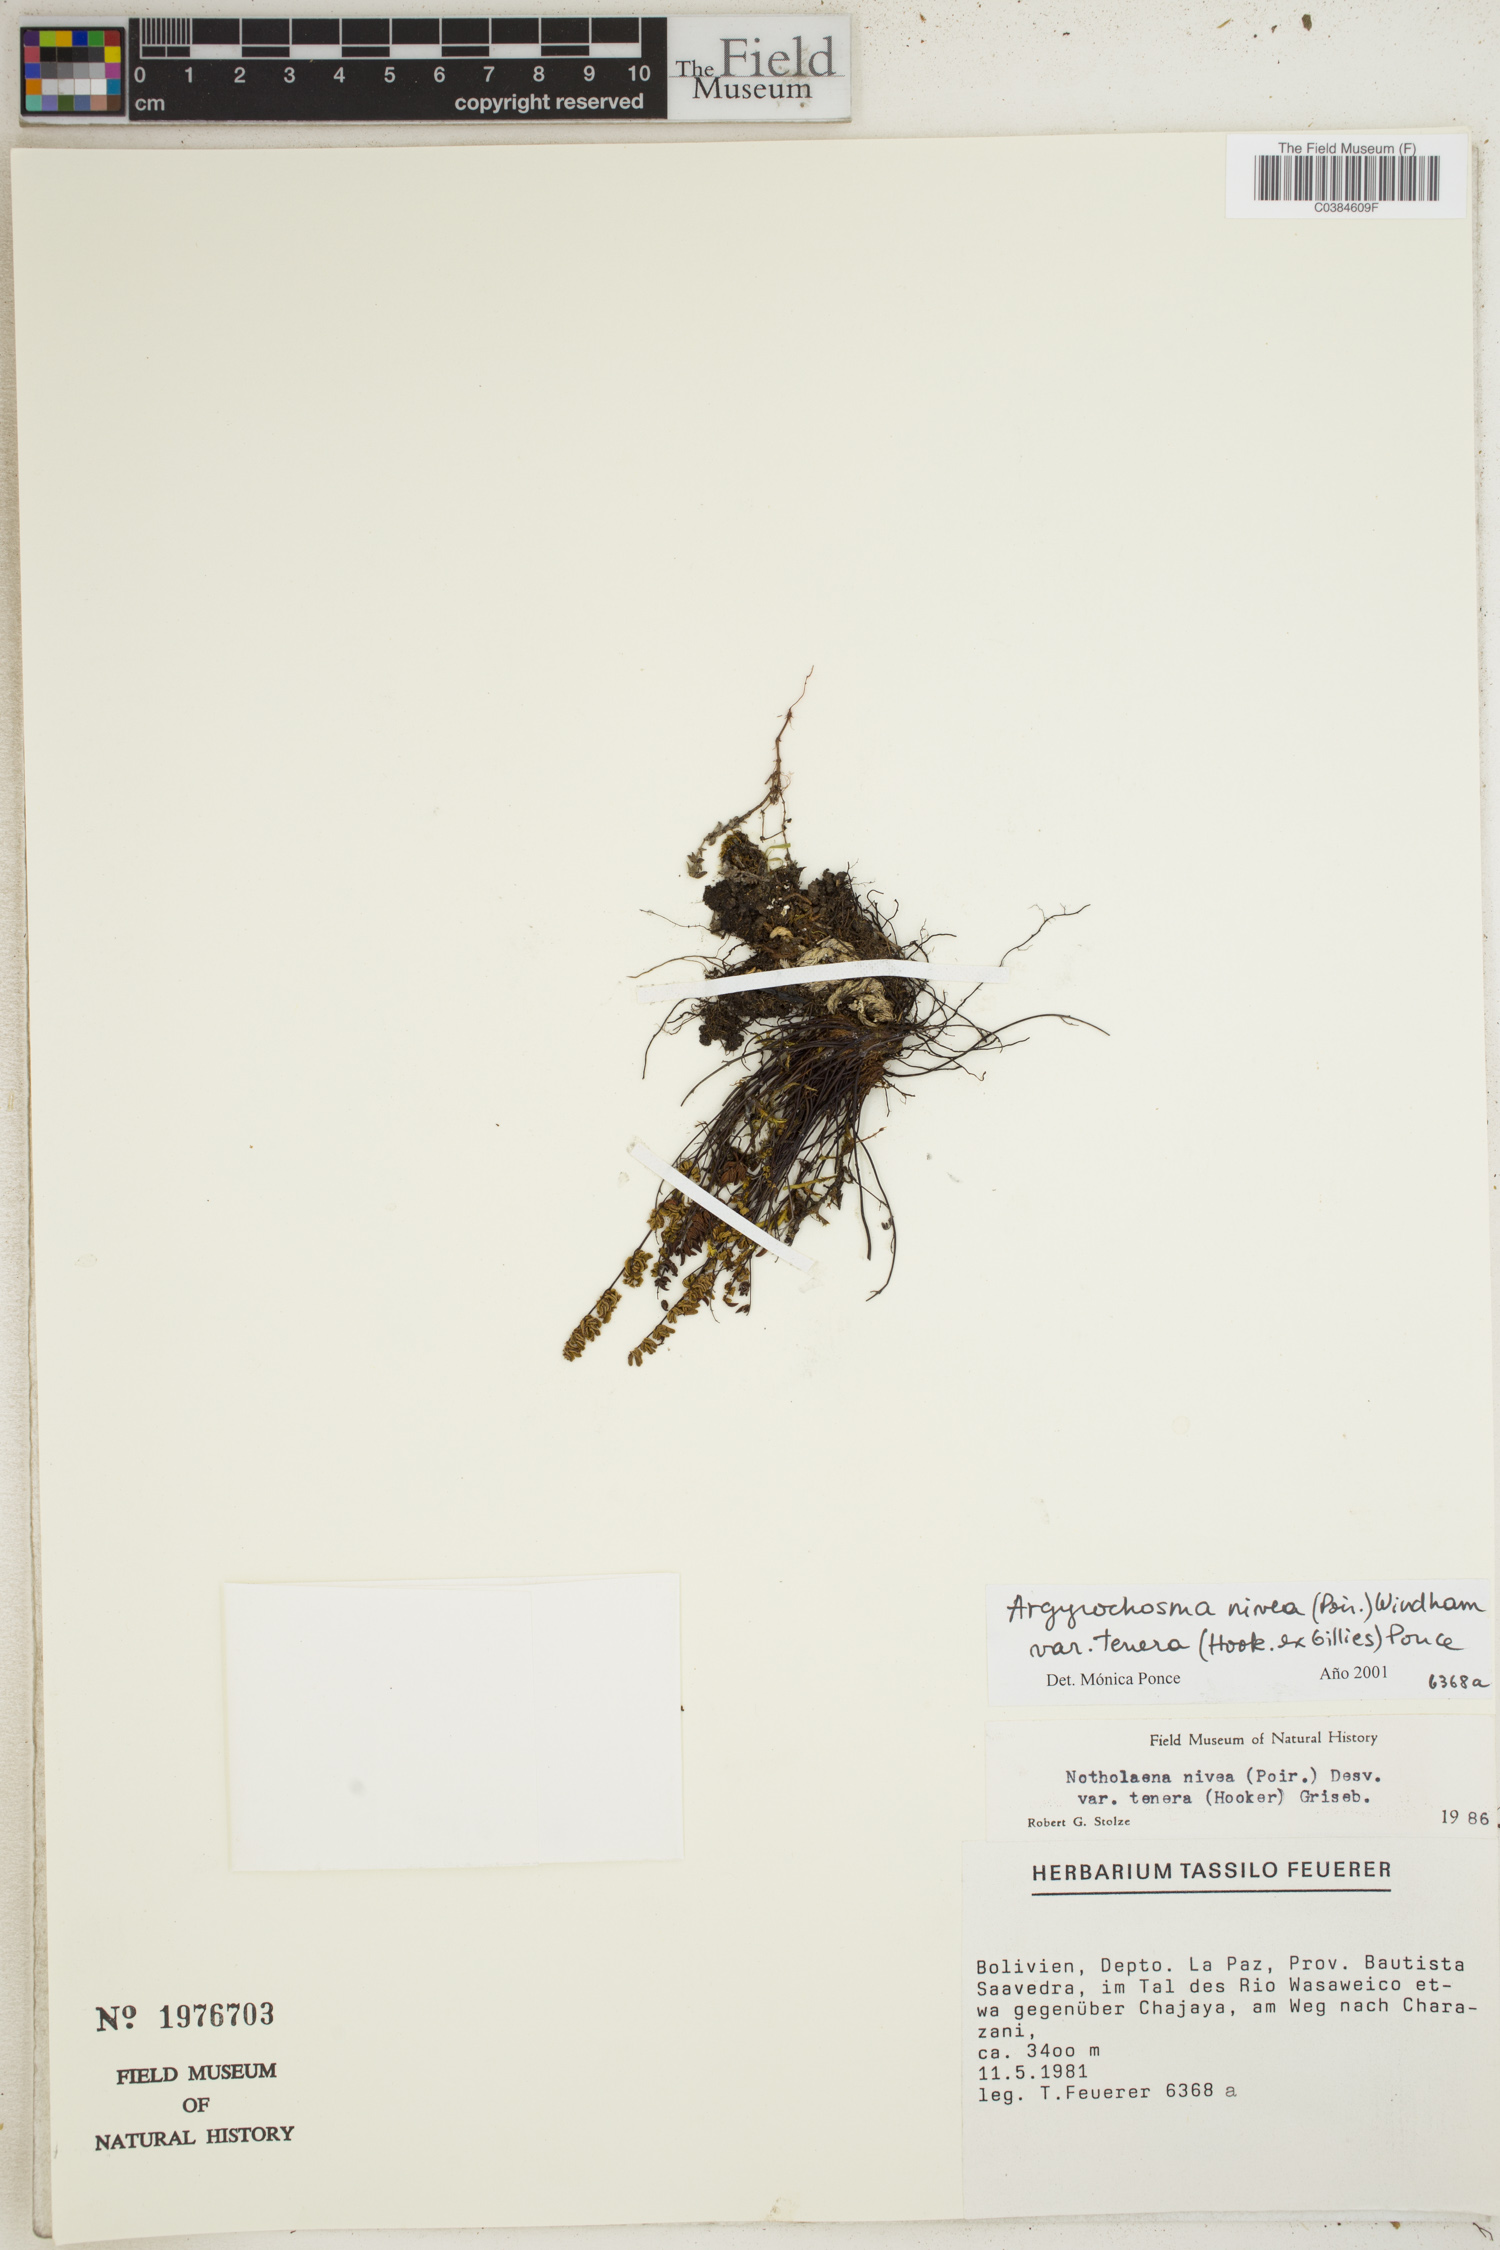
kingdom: Plantae
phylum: Tracheophyta
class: Polypodiopsida
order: Polypodiales
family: Pteridaceae
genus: Argyrochosma
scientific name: Argyrochosma nivea
